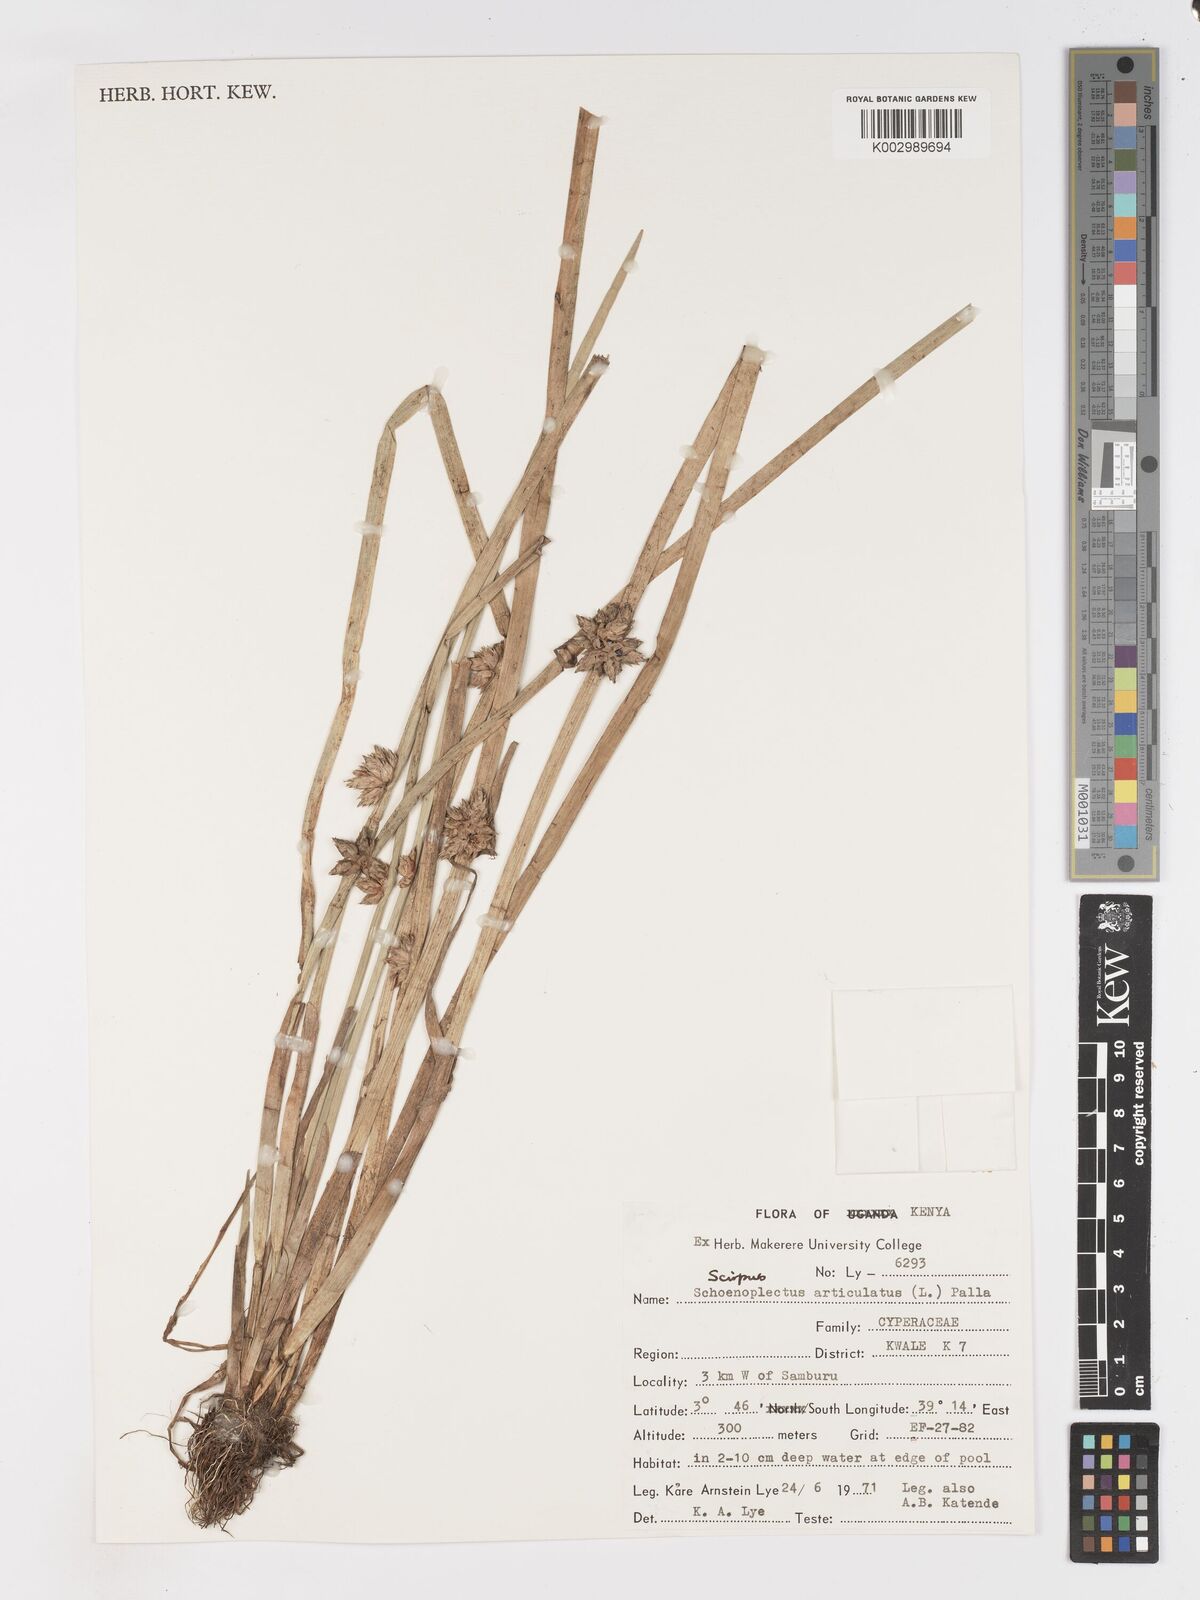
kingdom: Plantae
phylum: Tracheophyta
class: Liliopsida
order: Poales
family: Cyperaceae
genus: Schoenoplectiella
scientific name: Schoenoplectiella articulata
